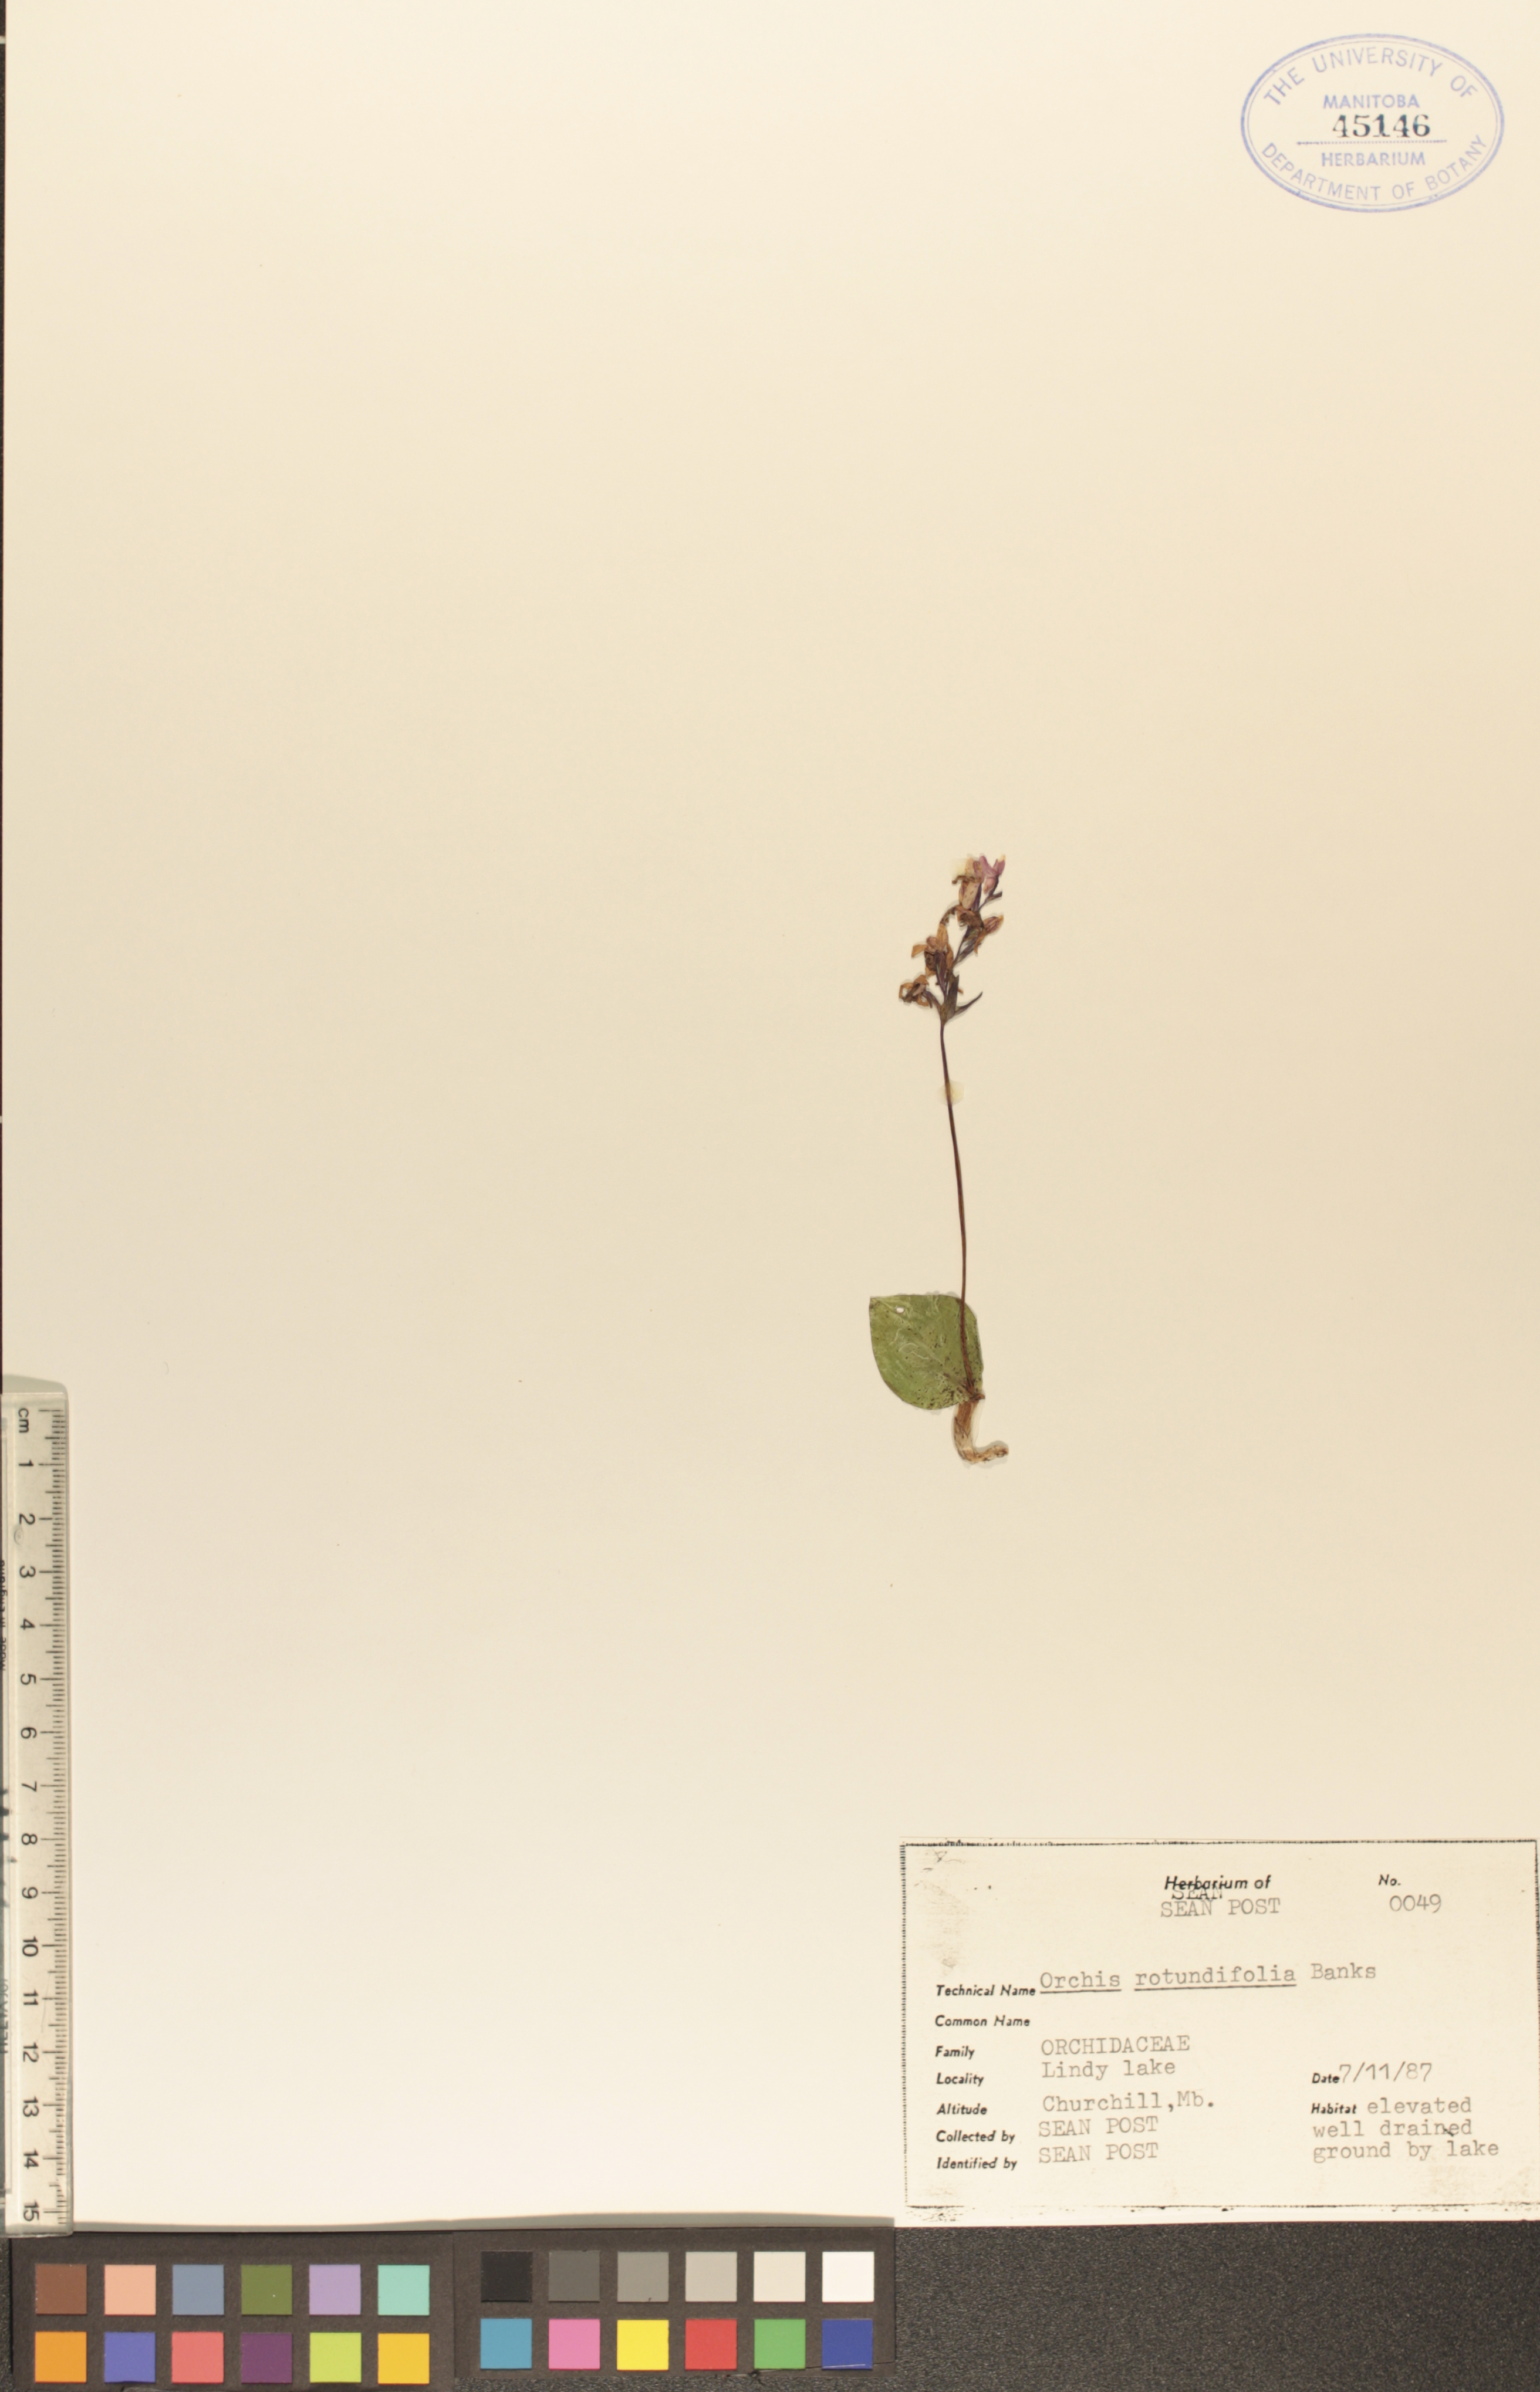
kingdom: Plantae
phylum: Tracheophyta
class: Liliopsida
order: Asparagales
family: Orchidaceae
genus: Galearis
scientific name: Galearis rotundifolia
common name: One-leaved orchis
